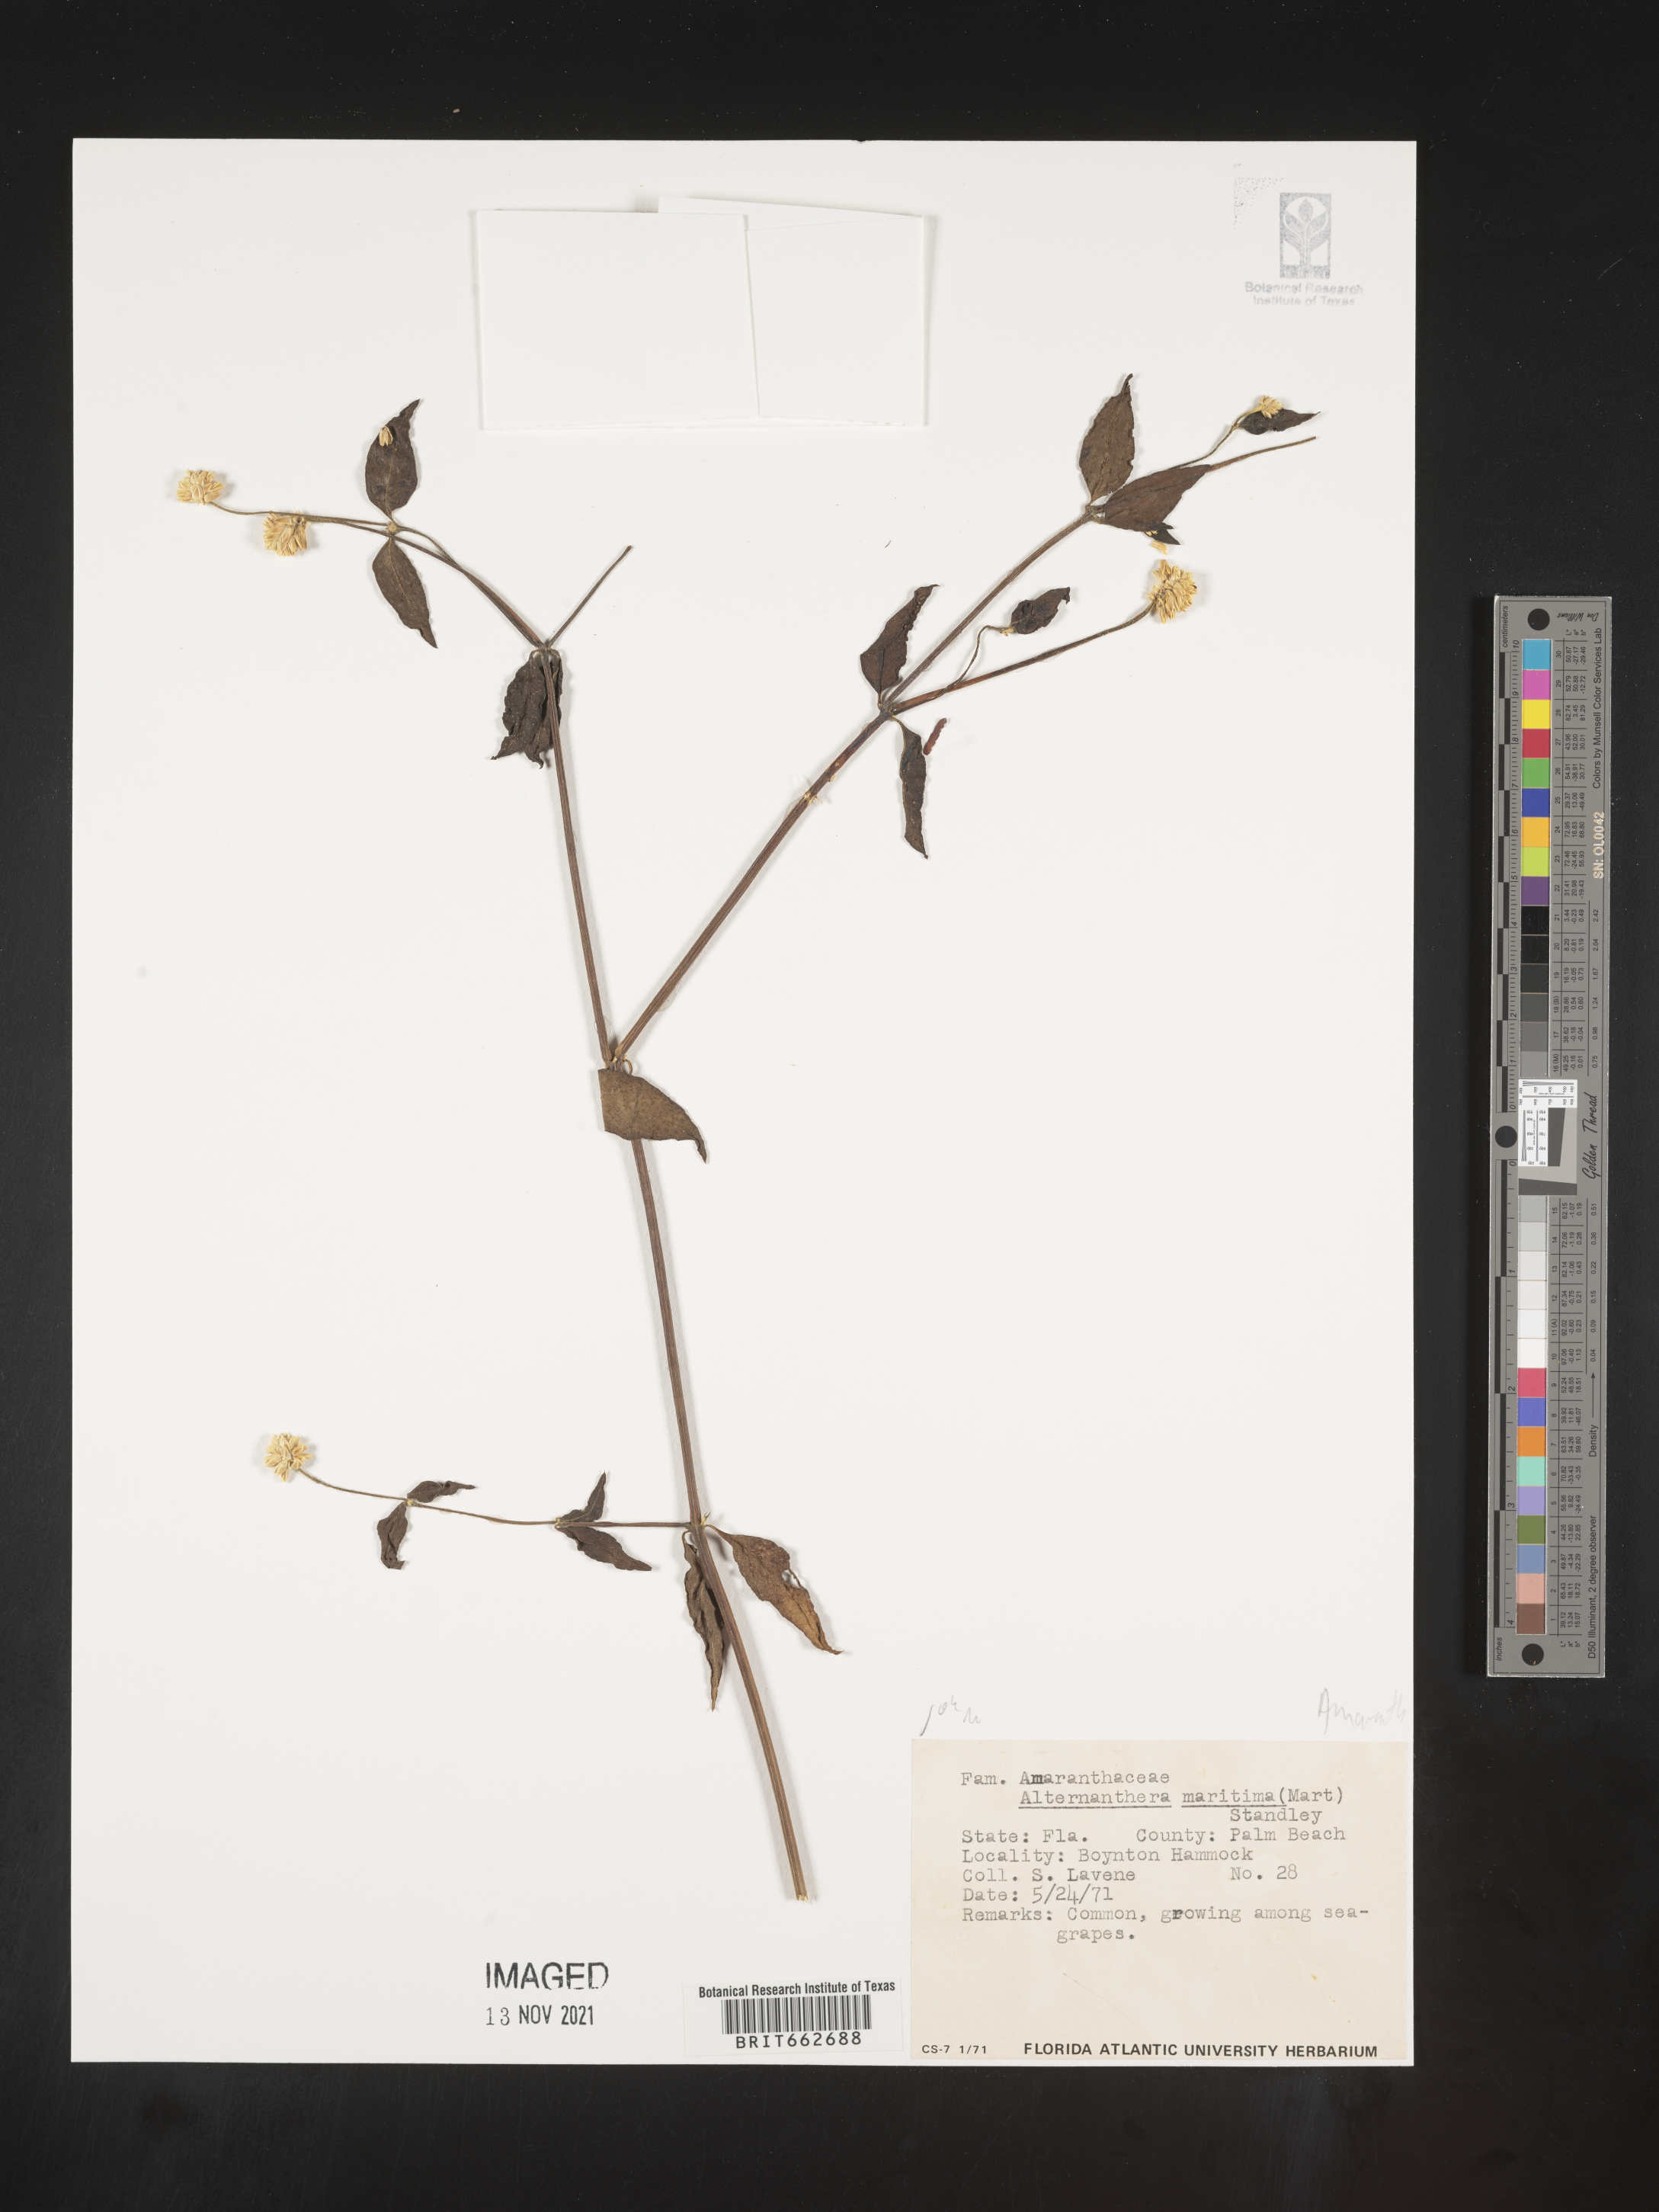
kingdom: Plantae
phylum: Tracheophyta
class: Magnoliopsida
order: Caryophyllales
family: Amaranthaceae
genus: Alternanthera
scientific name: Alternanthera littoralis
